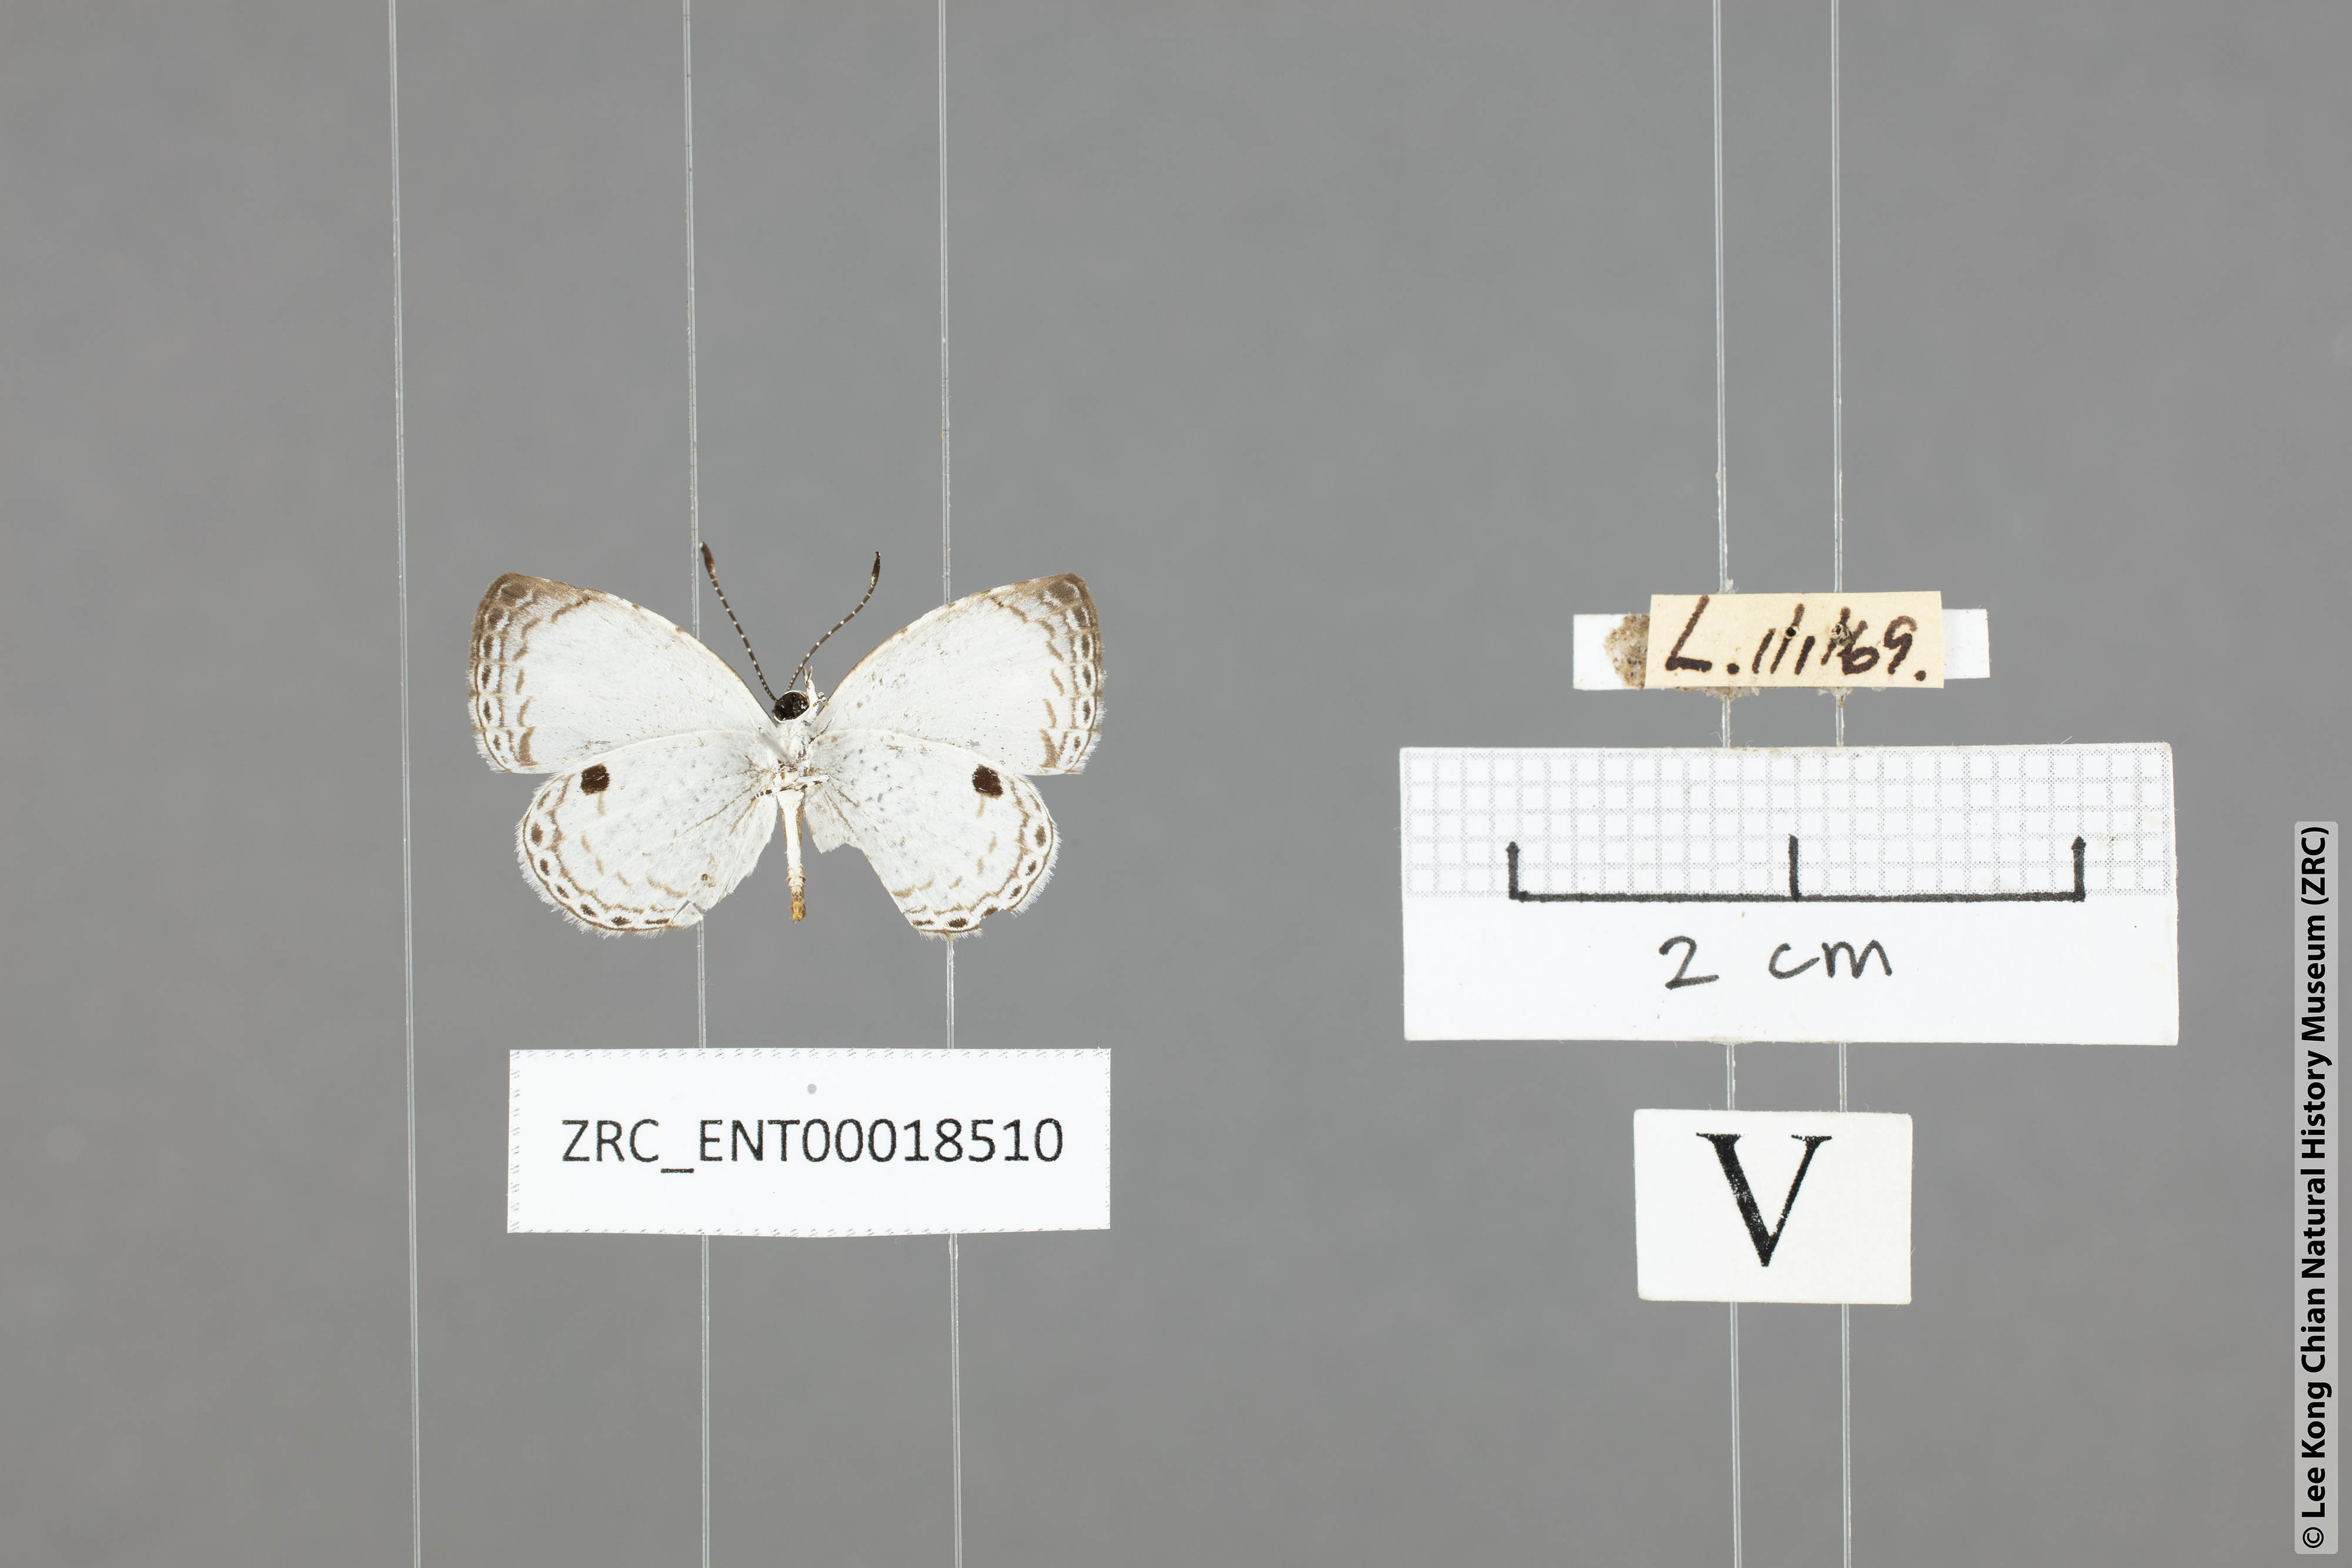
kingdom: Animalia
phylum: Arthropoda
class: Insecta
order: Lepidoptera
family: Lycaenidae
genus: Neopithecops
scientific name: Neopithecops zalmora
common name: Quaker
